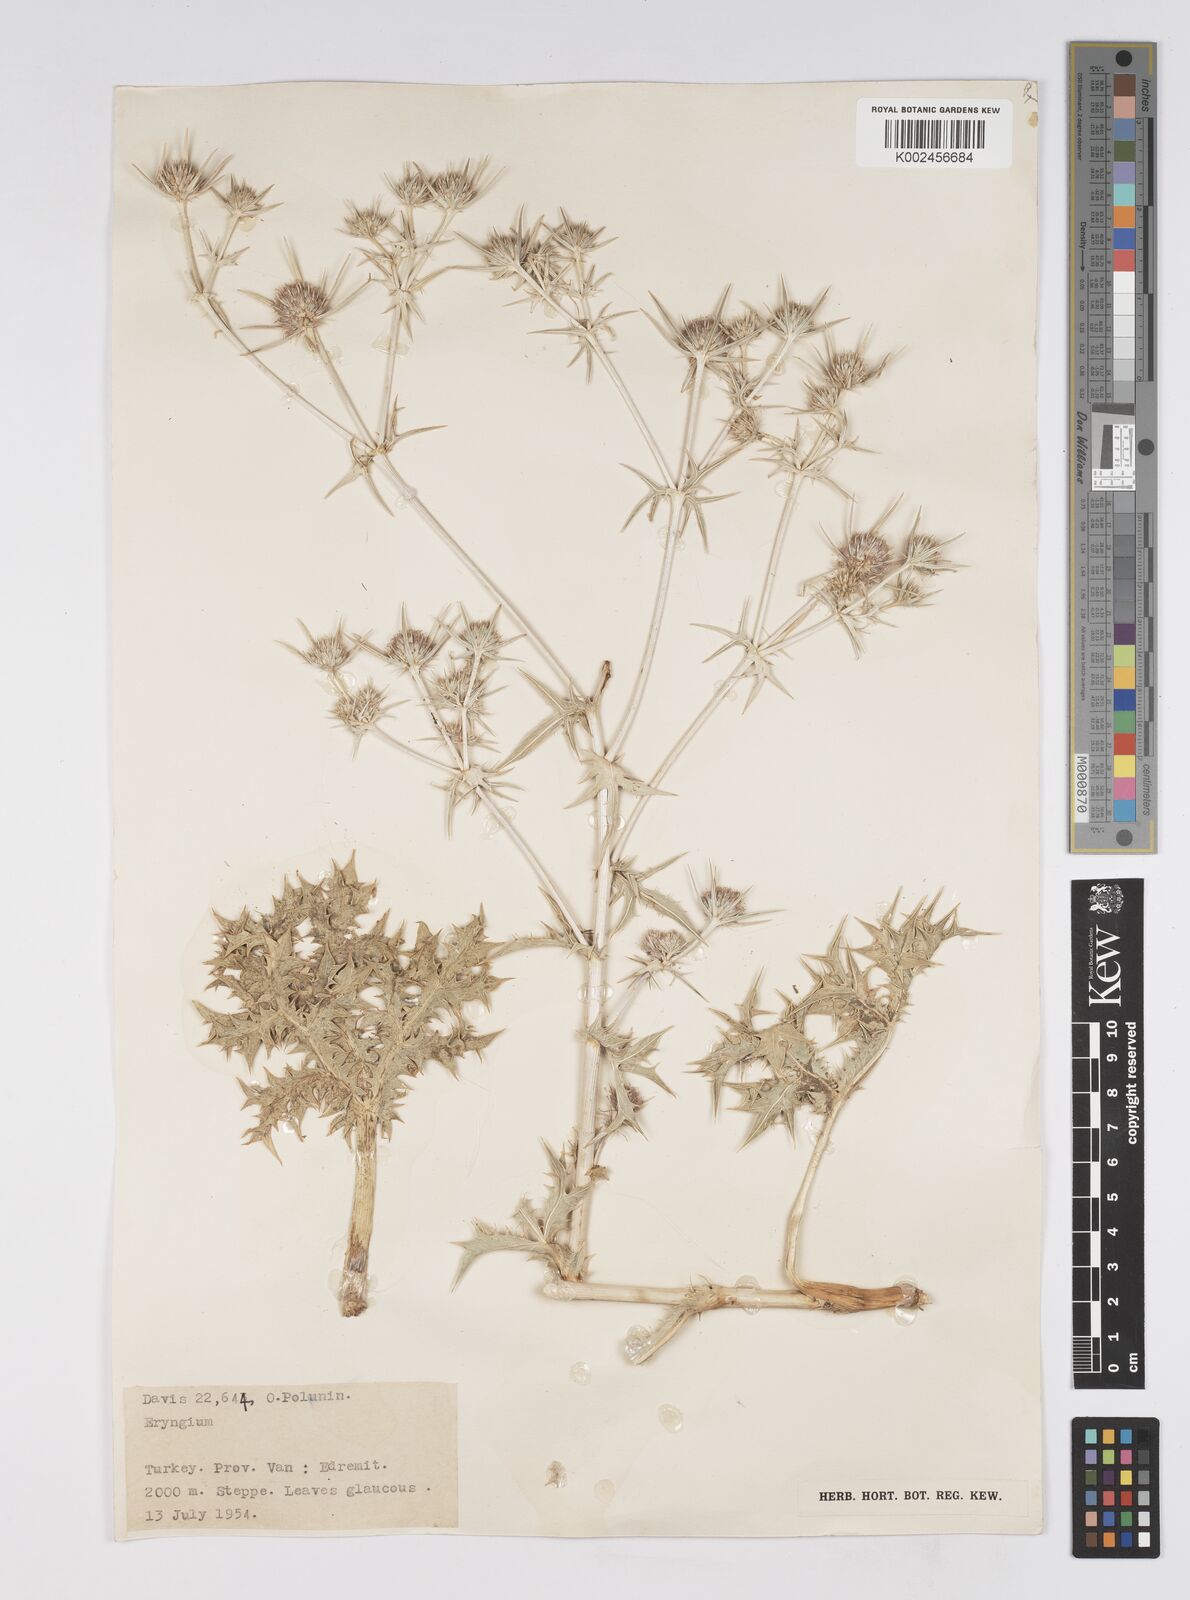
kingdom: Plantae
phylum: Tracheophyta
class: Magnoliopsida
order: Apiales
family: Apiaceae
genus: Eryngium
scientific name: Eryngium billardierei
